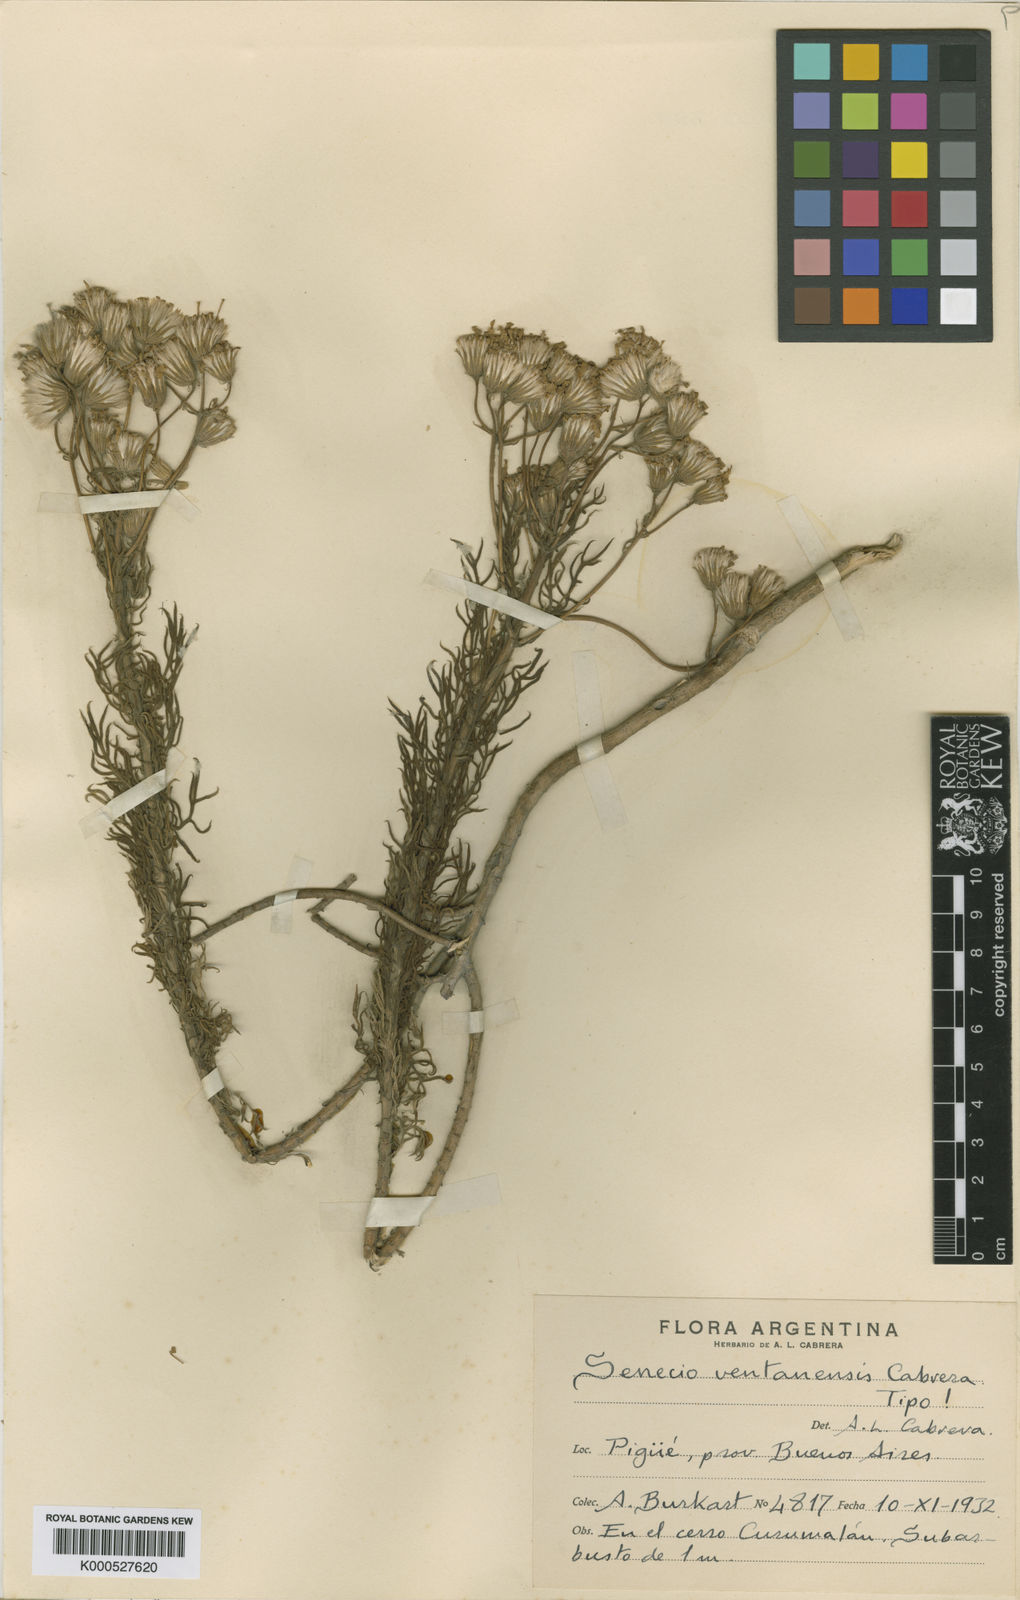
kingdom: Plantae
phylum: Tracheophyta
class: Magnoliopsida
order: Asterales
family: Asteraceae
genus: Senecio
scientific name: Senecio ventanensis
